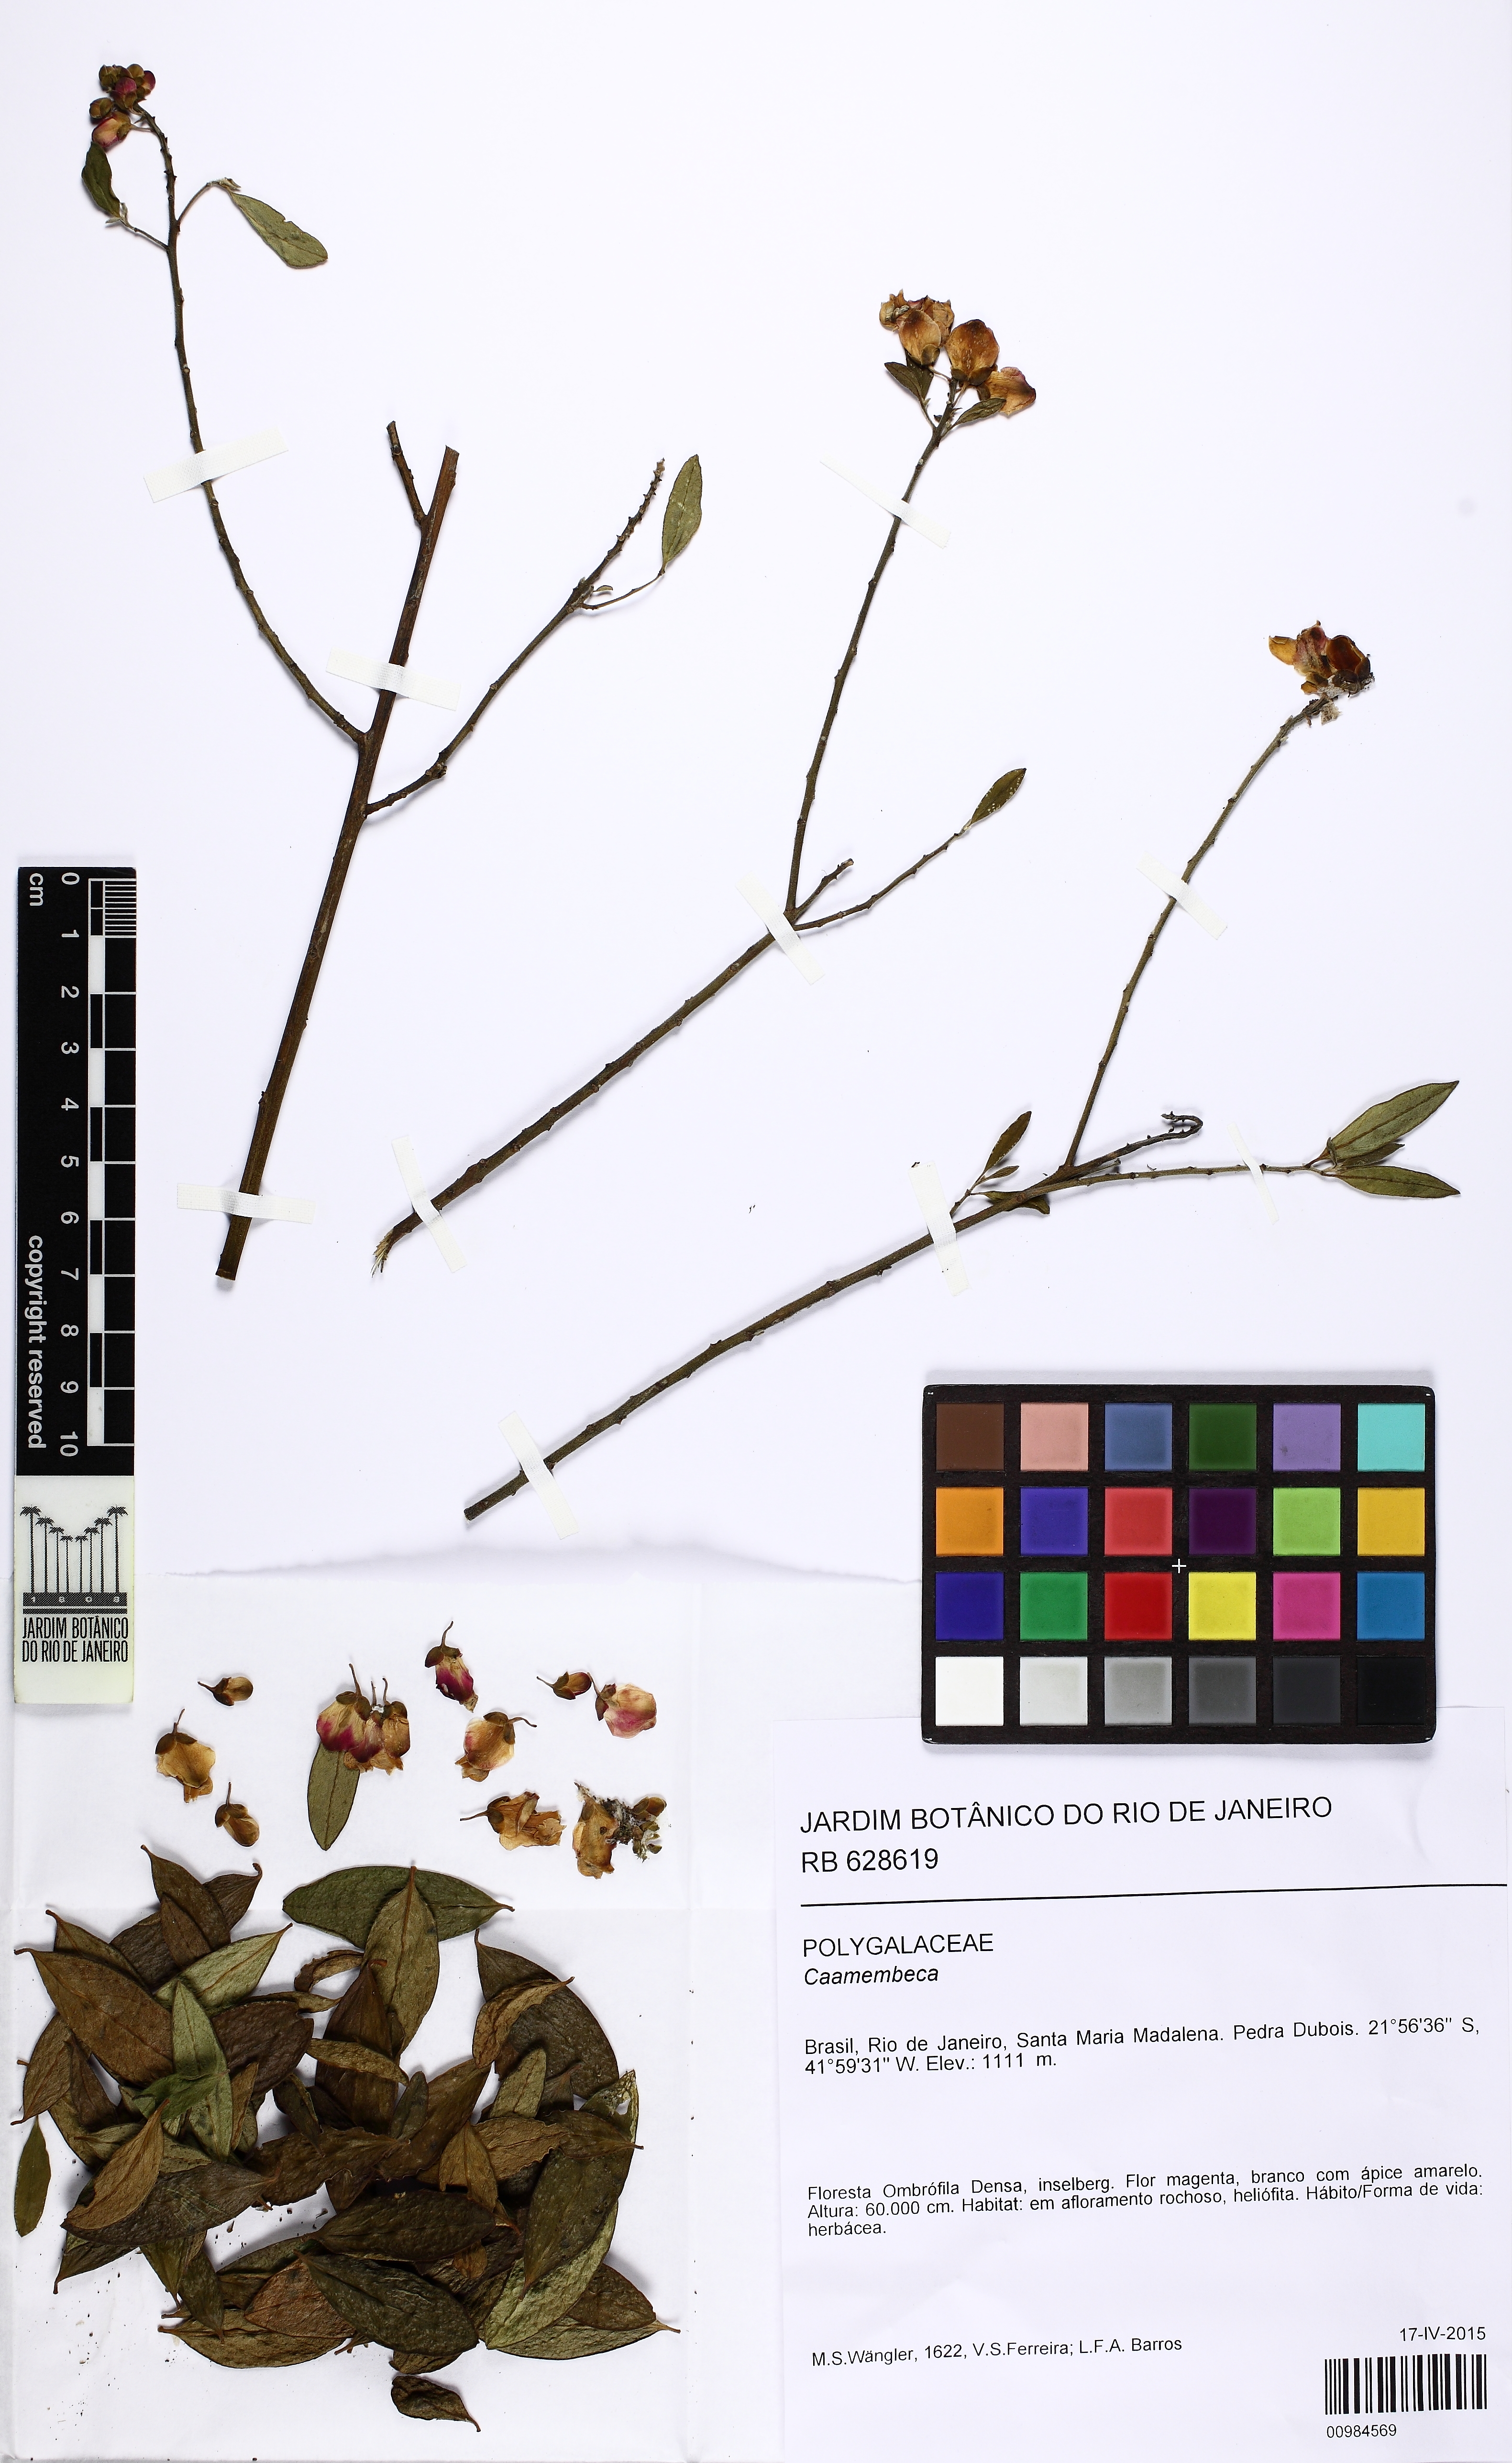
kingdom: Plantae
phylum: Tracheophyta
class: Magnoliopsida
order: Fabales
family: Polygalaceae
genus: Caamembeca
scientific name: Caamembeca
